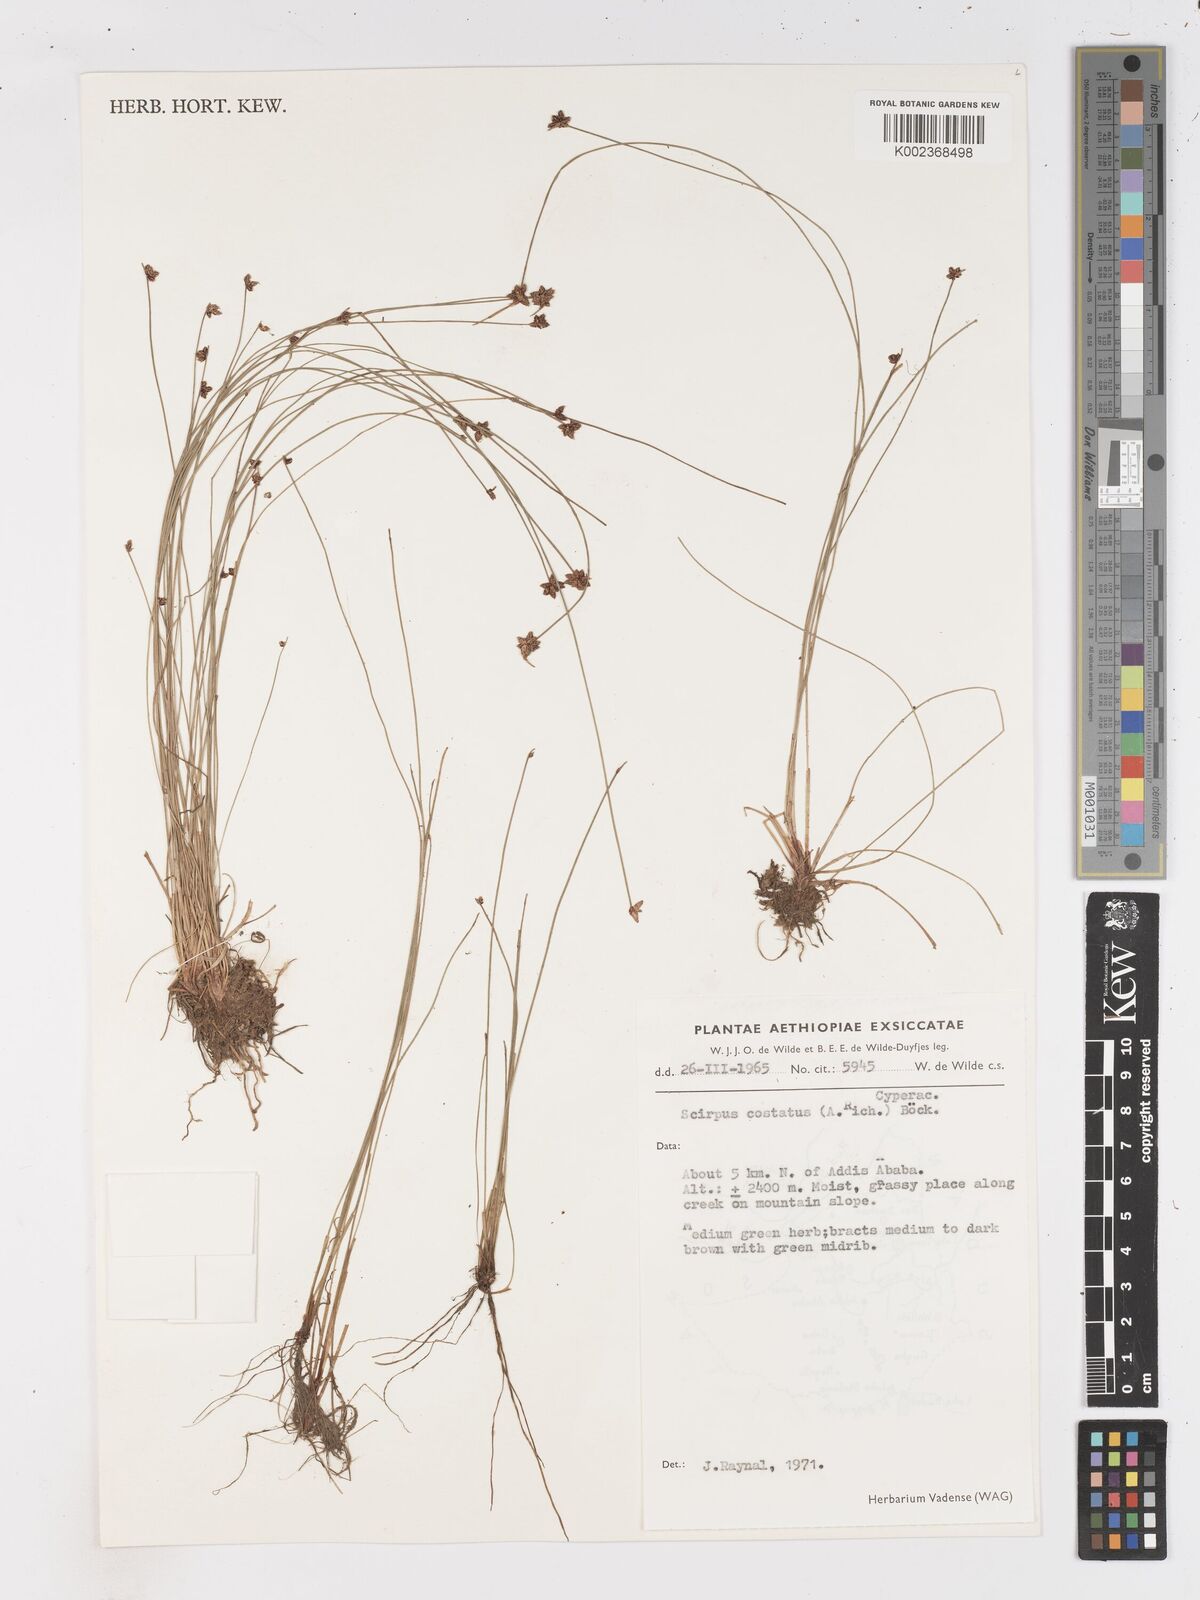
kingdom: Plantae
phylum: Tracheophyta
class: Liliopsida
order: Poales
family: Cyperaceae
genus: Isolepis
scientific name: Isolepis costata
